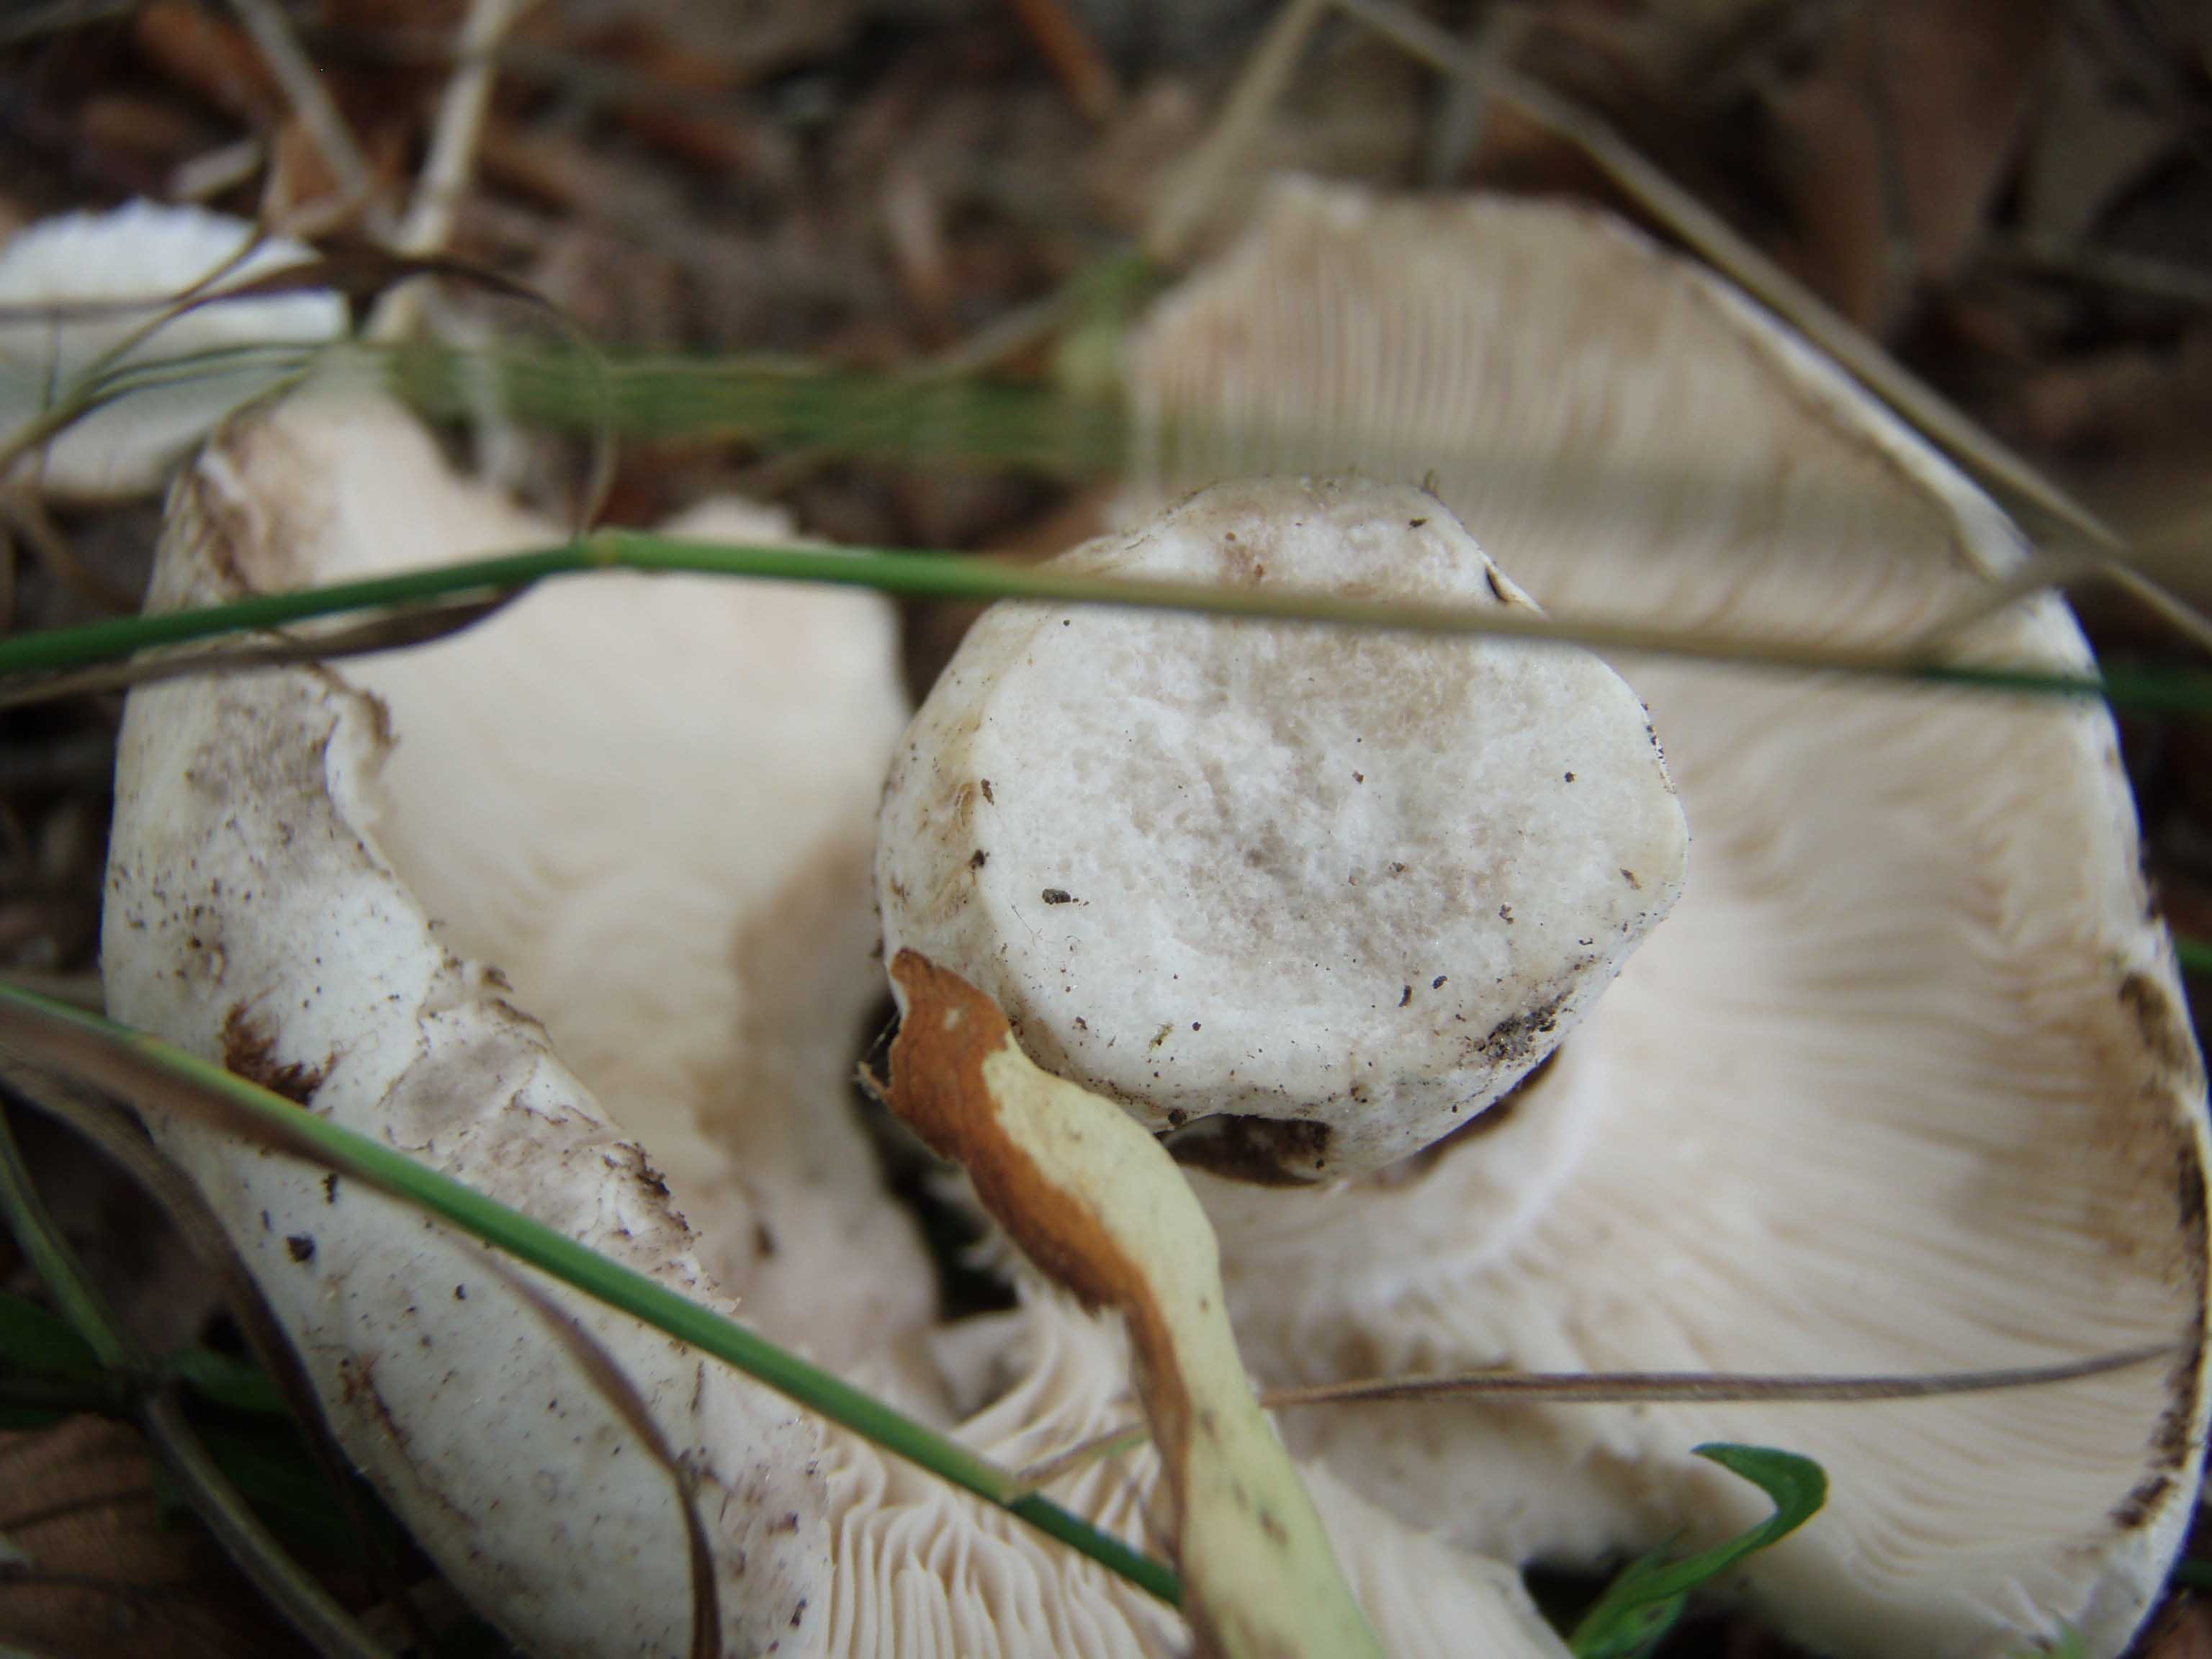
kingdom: Fungi
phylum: Basidiomycota
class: Agaricomycetes
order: Russulales
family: Russulaceae
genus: Russula
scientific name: Russula anthracina
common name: kul-skørhat
